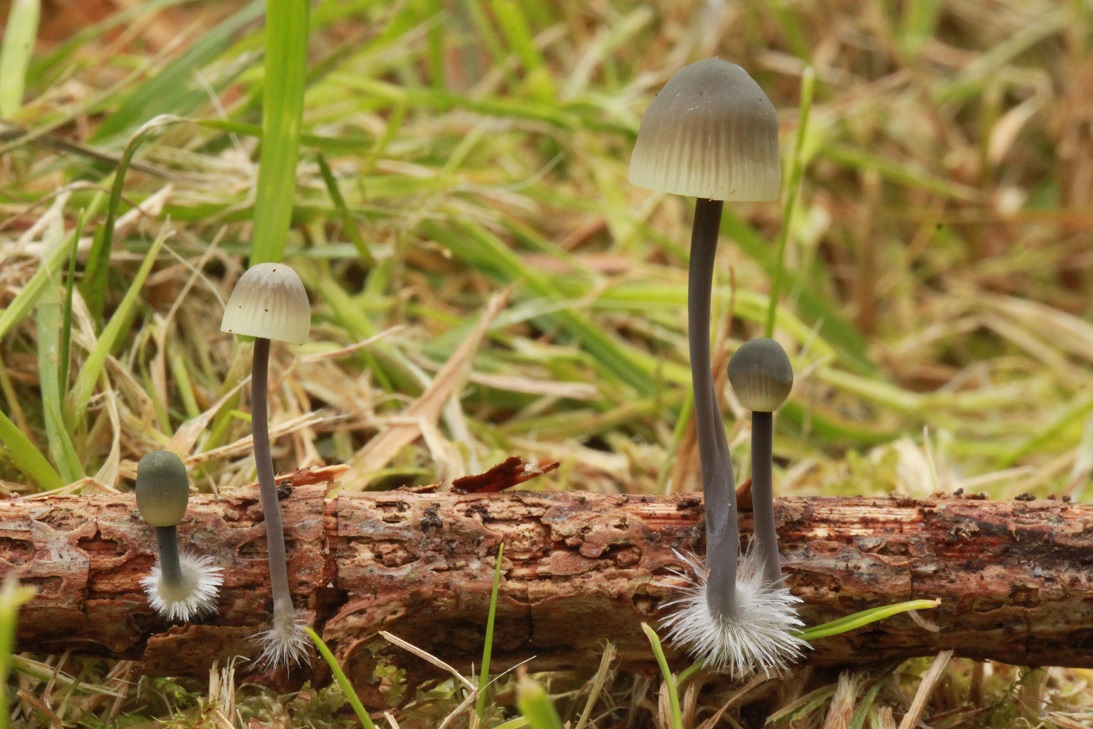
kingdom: Fungi
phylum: Basidiomycota
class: Agaricomycetes
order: Agaricales
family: Mycenaceae
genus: Mycena
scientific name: Mycena arcangeliana
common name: oliven-huesvamp
